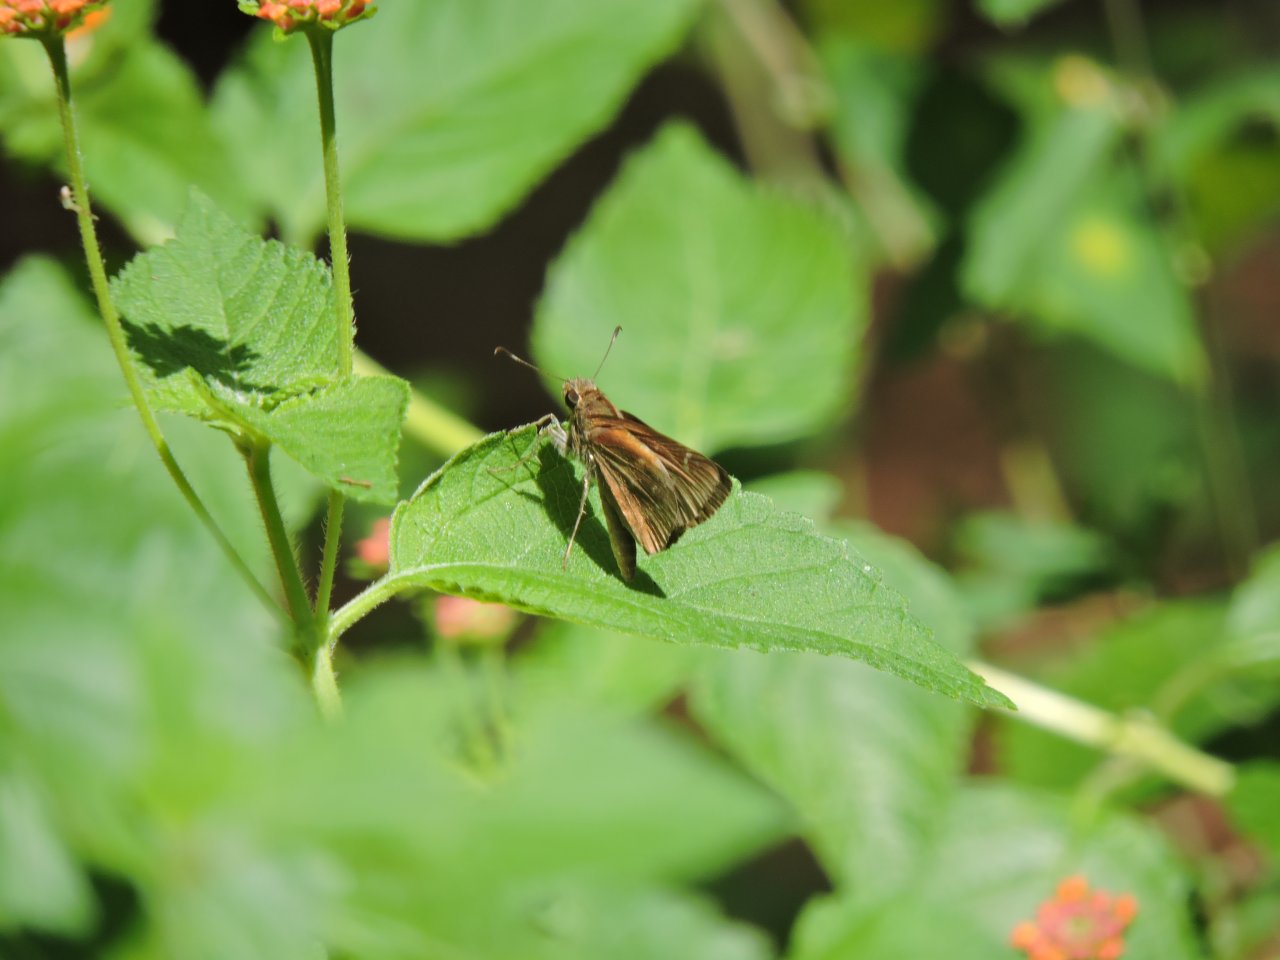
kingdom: Animalia
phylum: Arthropoda
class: Insecta
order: Lepidoptera
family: Hesperiidae
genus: Lerodea
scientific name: Lerodea eufala
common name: Eufala Skipper
